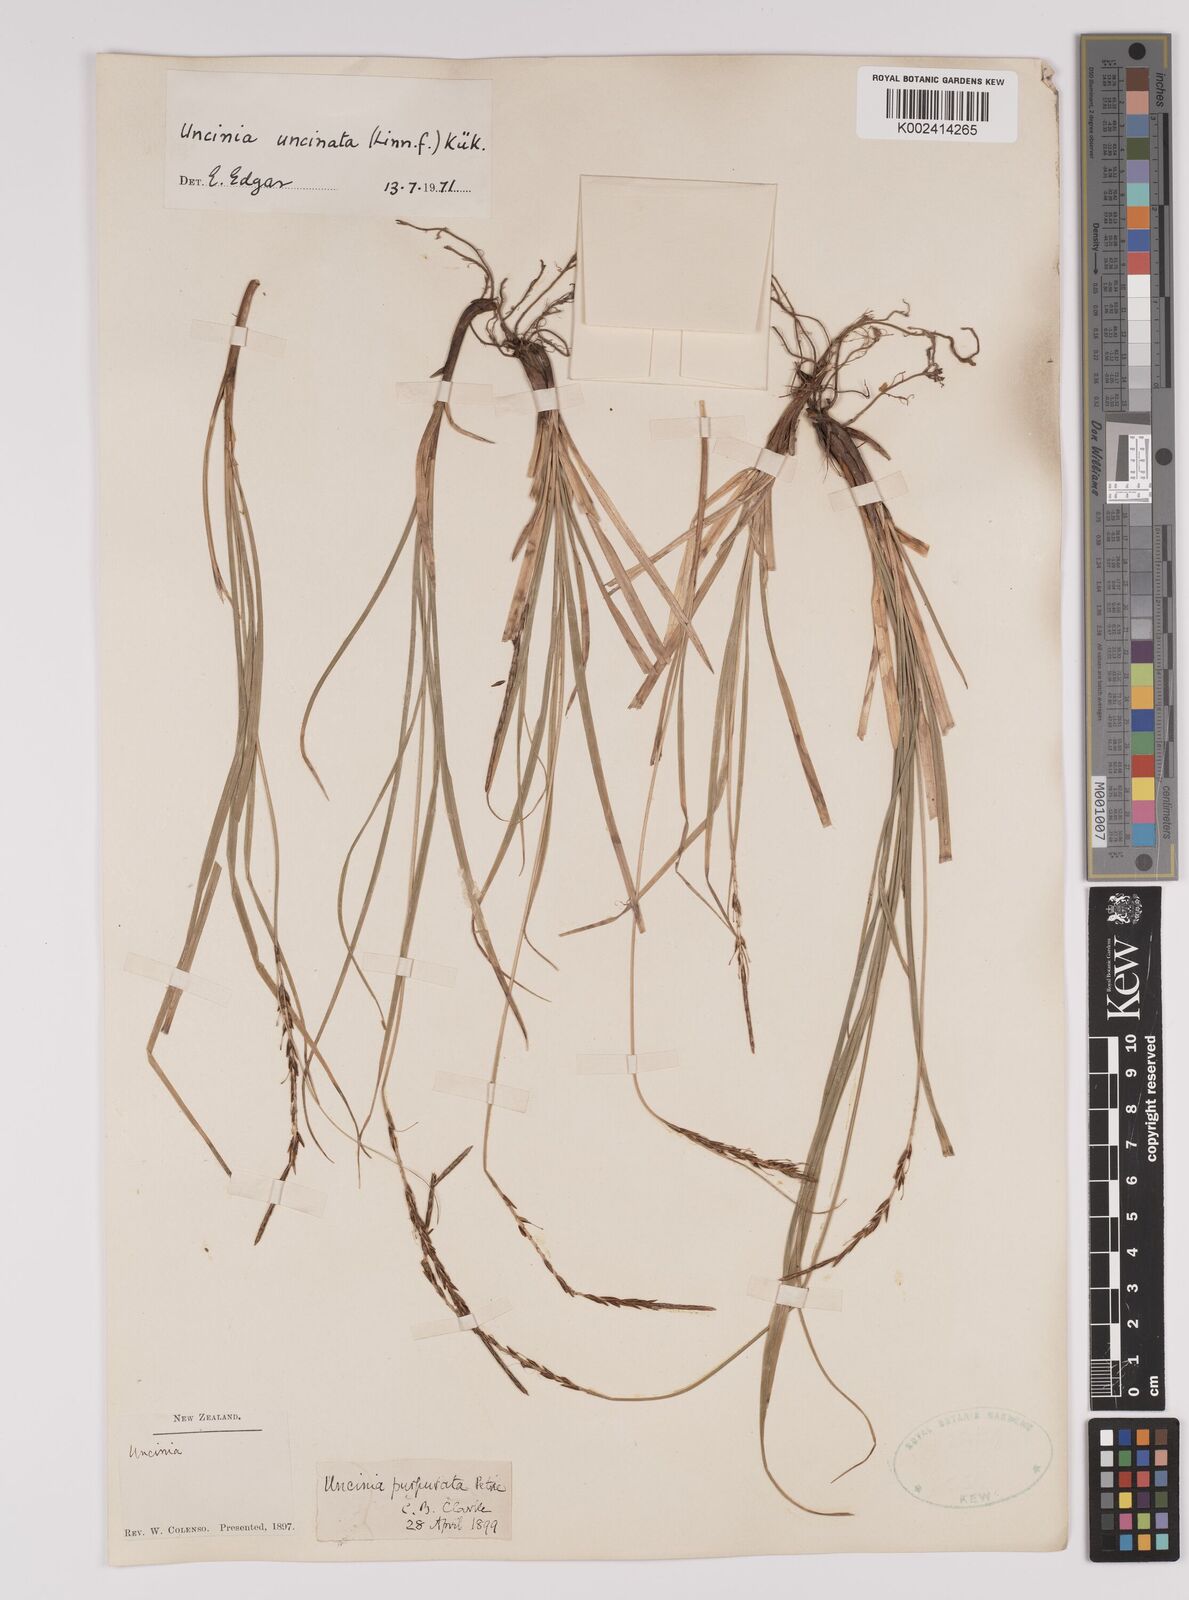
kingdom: Plantae
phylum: Tracheophyta
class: Liliopsida
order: Poales
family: Cyperaceae
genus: Carex
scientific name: Carex uncinata
